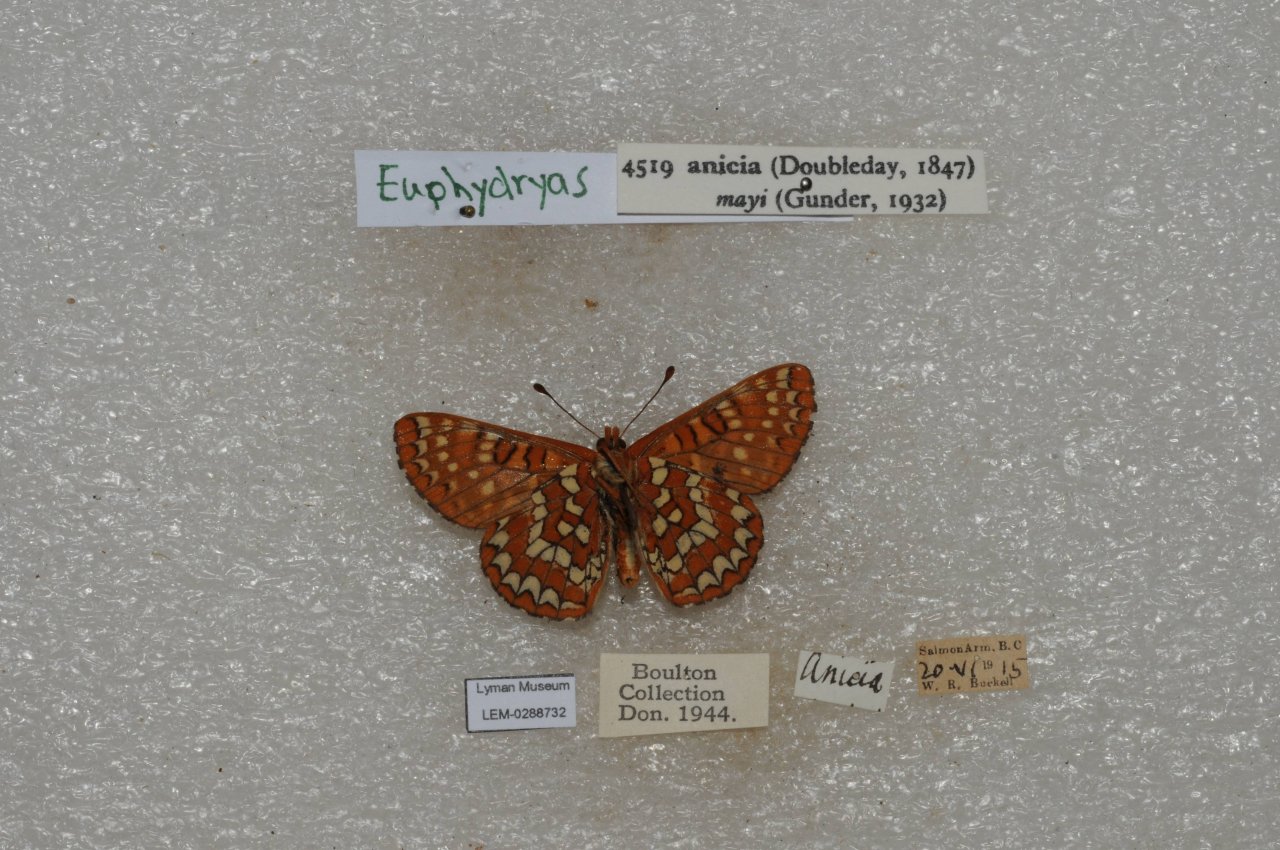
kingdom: Animalia
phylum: Arthropoda
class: Insecta
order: Lepidoptera
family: Nymphalidae
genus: Occidryas
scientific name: Occidryas anicia
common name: Anicia Checkerspot
